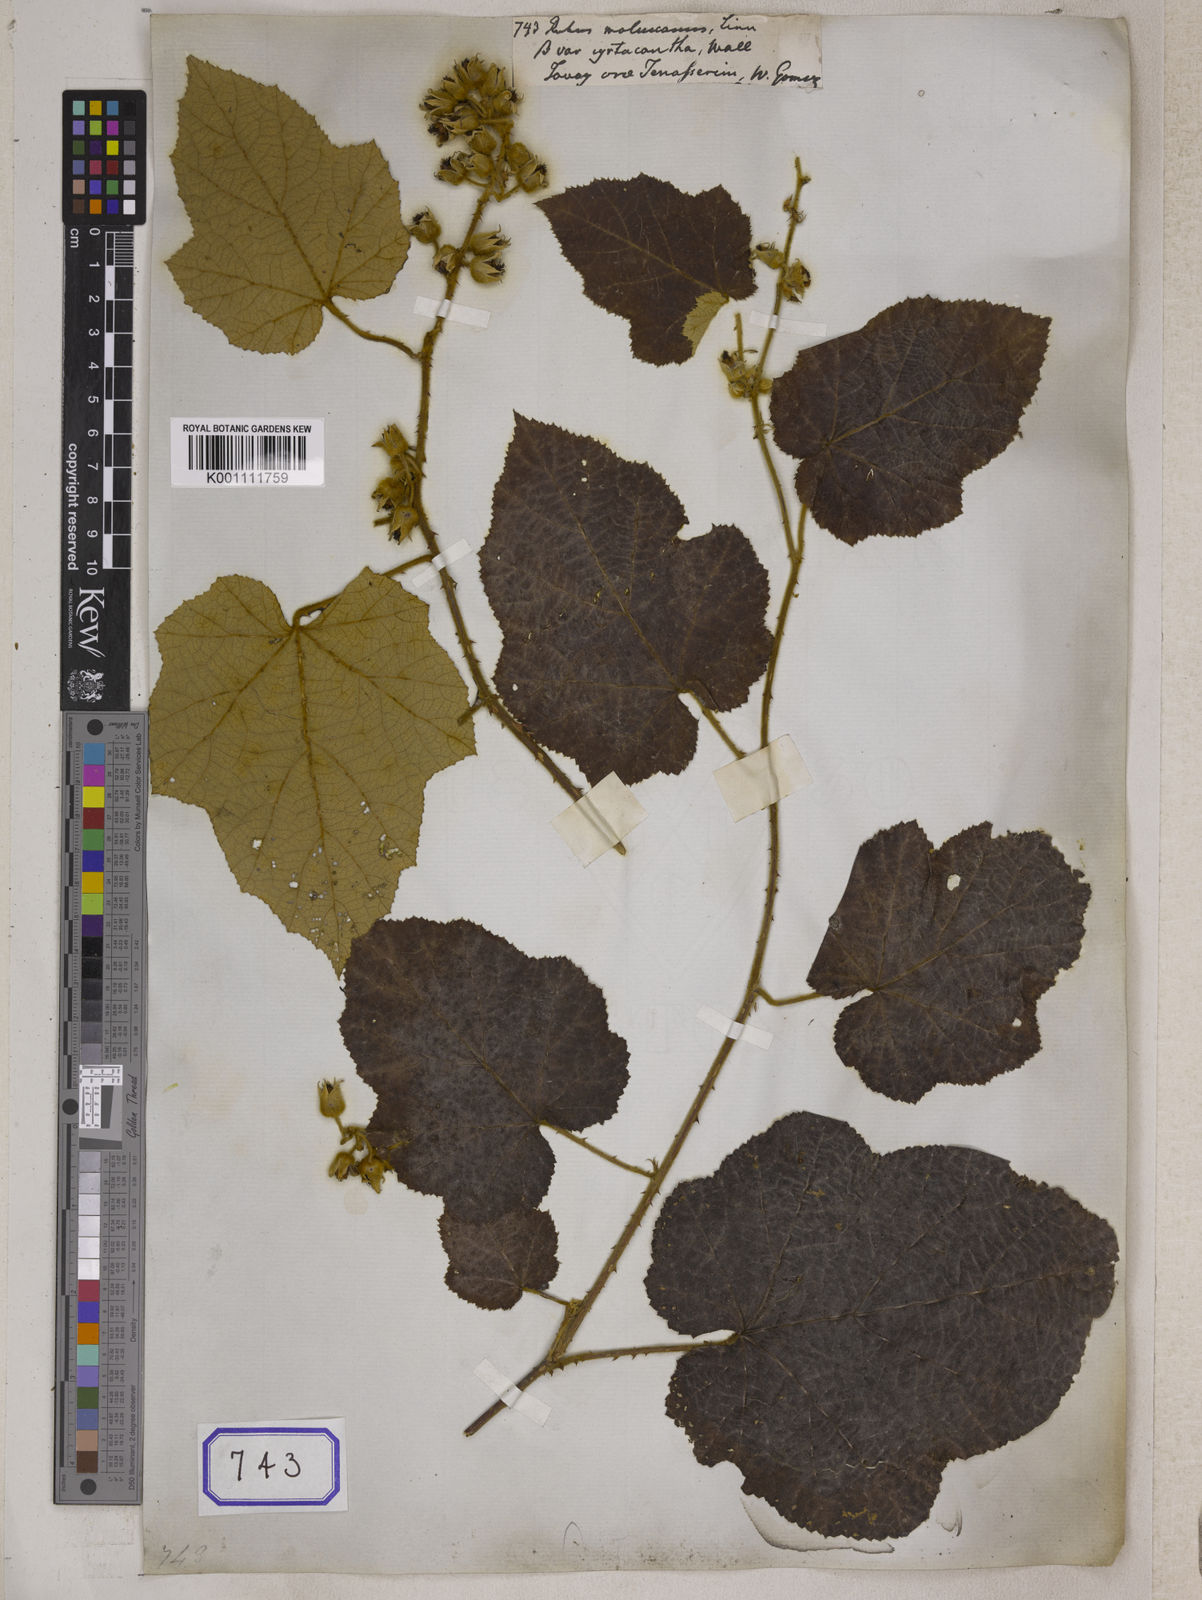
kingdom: Plantae
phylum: Tracheophyta
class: Magnoliopsida
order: Rosales
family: Rosaceae
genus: Rubus
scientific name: Rubus
